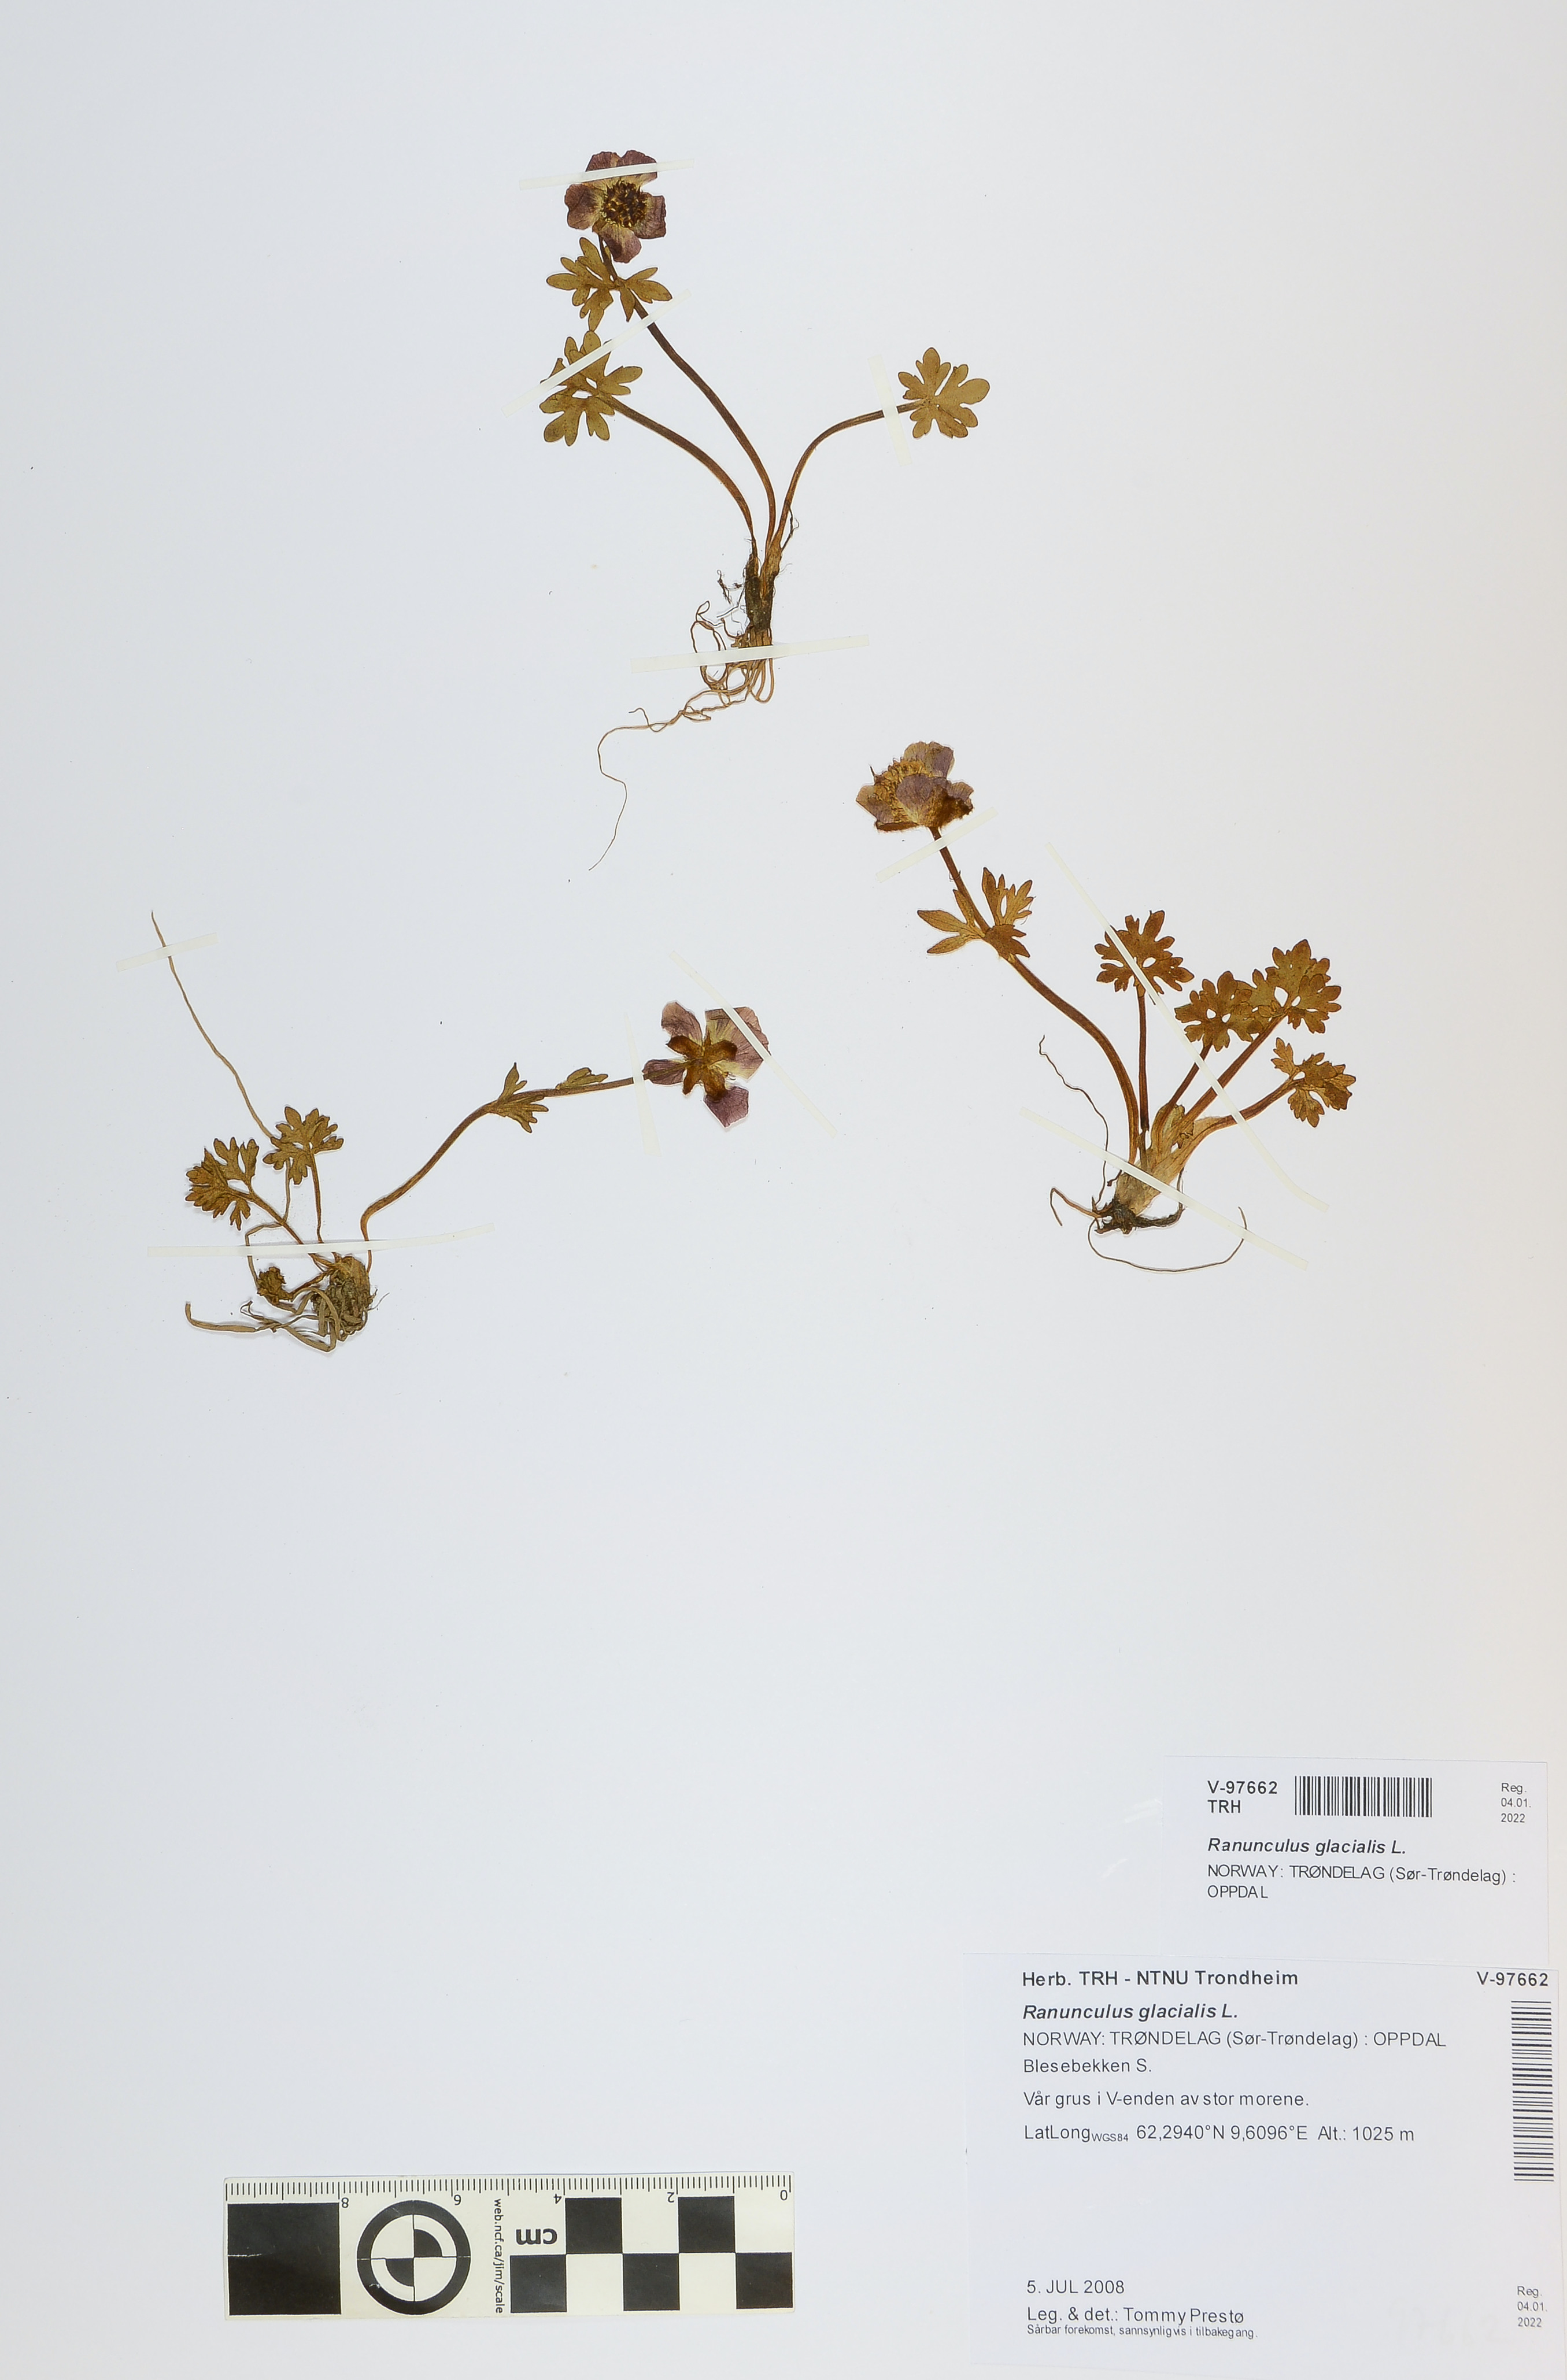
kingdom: Plantae
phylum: Tracheophyta
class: Magnoliopsida
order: Ranunculales
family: Ranunculaceae
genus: Ranunculus
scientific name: Ranunculus glacialis
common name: Glacier buttercup
